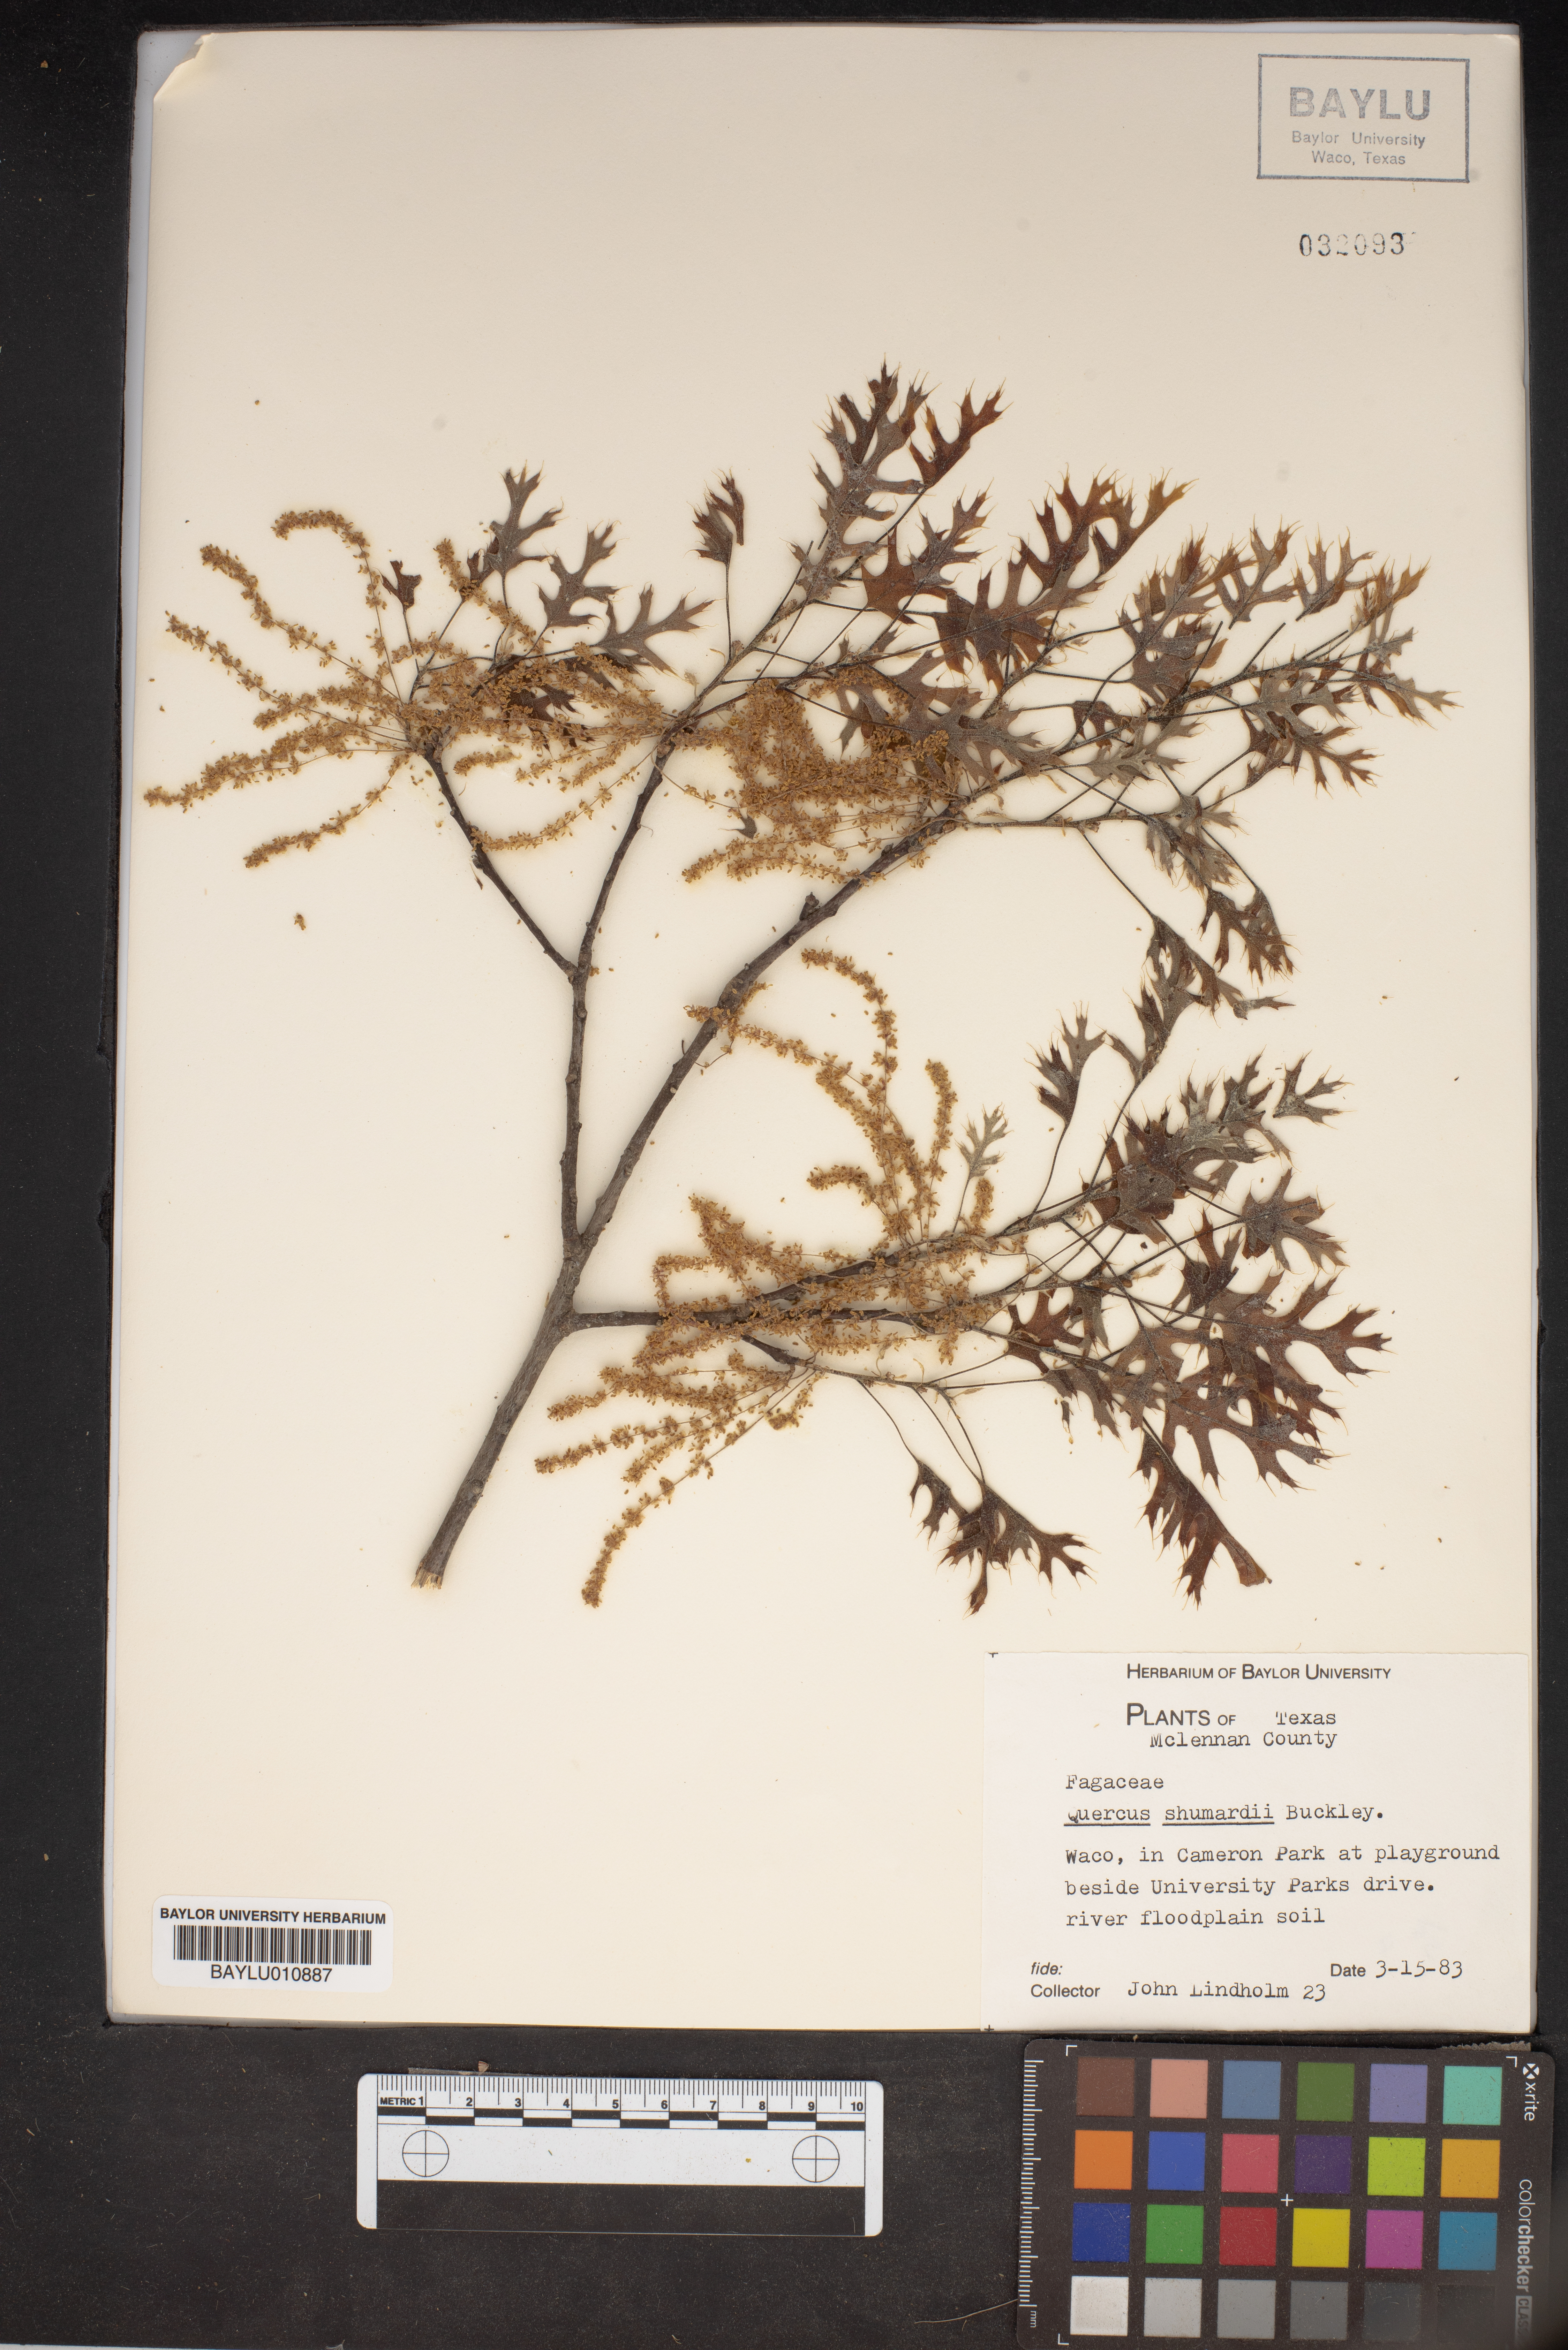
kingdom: Plantae
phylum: Tracheophyta
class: Magnoliopsida
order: Fagales
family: Fagaceae
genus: Quercus
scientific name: Quercus shumardii
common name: Shumard oak
